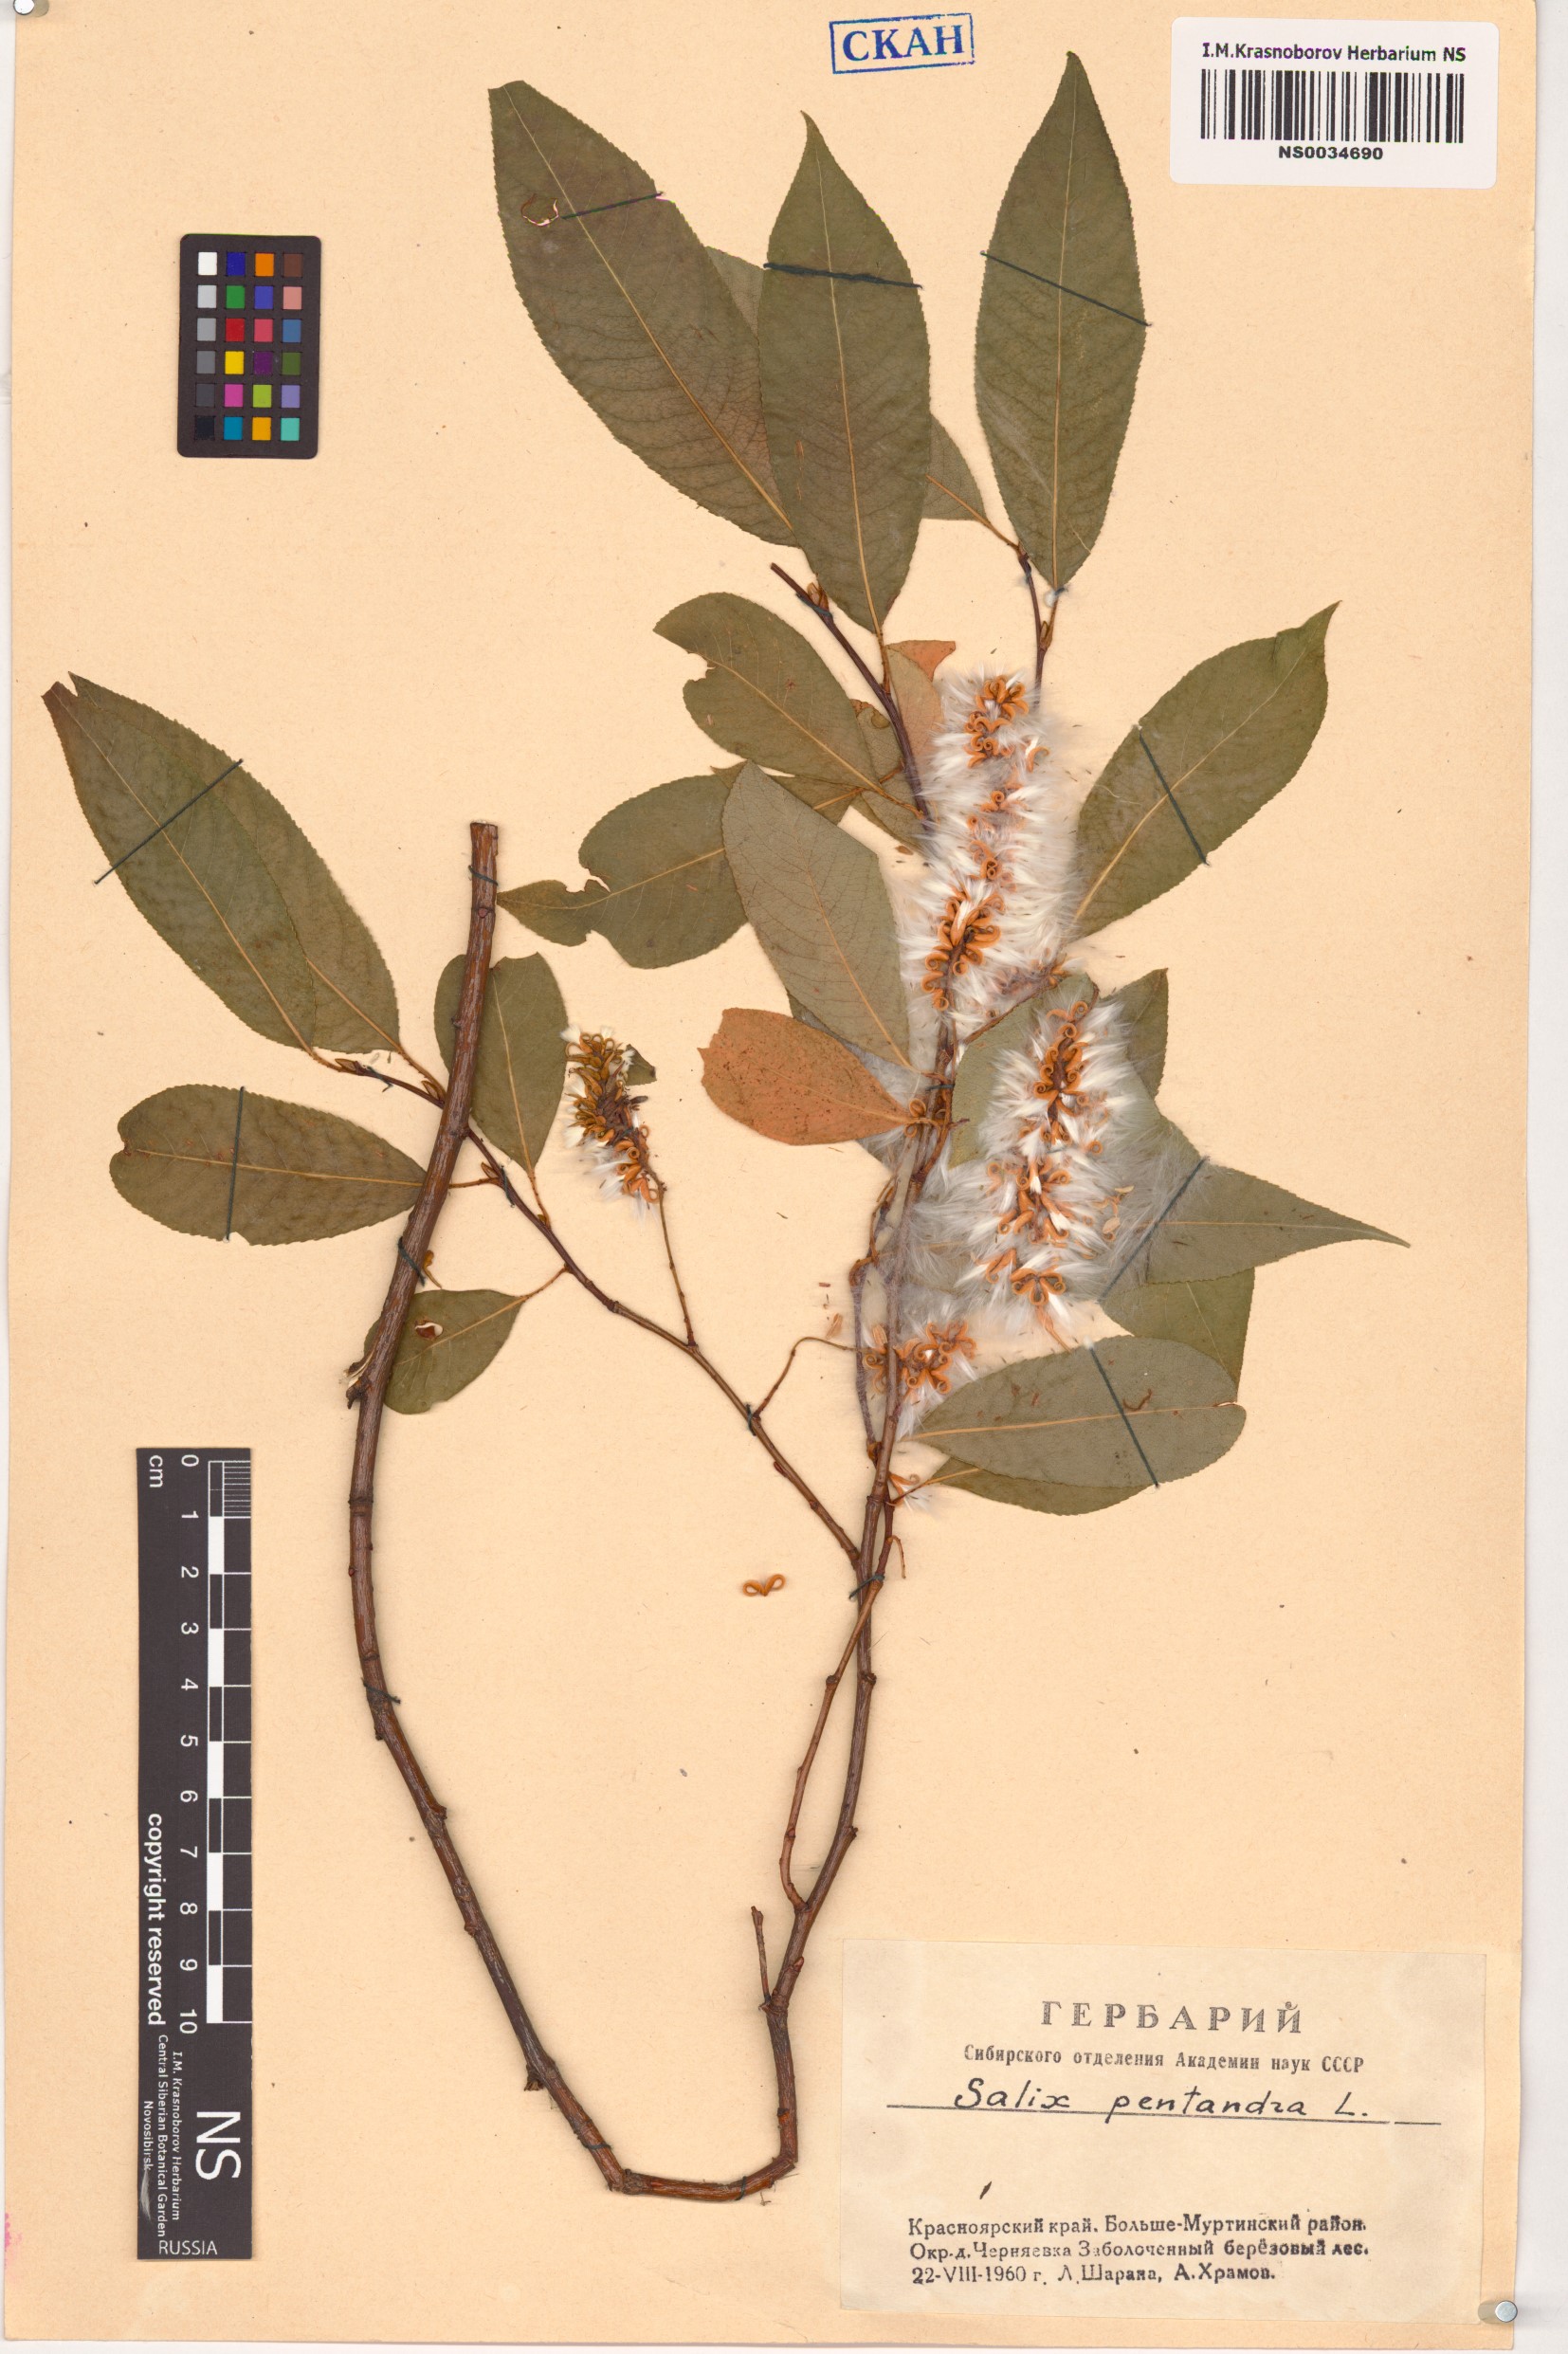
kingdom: Plantae
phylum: Tracheophyta
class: Magnoliopsida
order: Malpighiales
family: Salicaceae
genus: Salix
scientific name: Salix pentandra
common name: Bay willow
